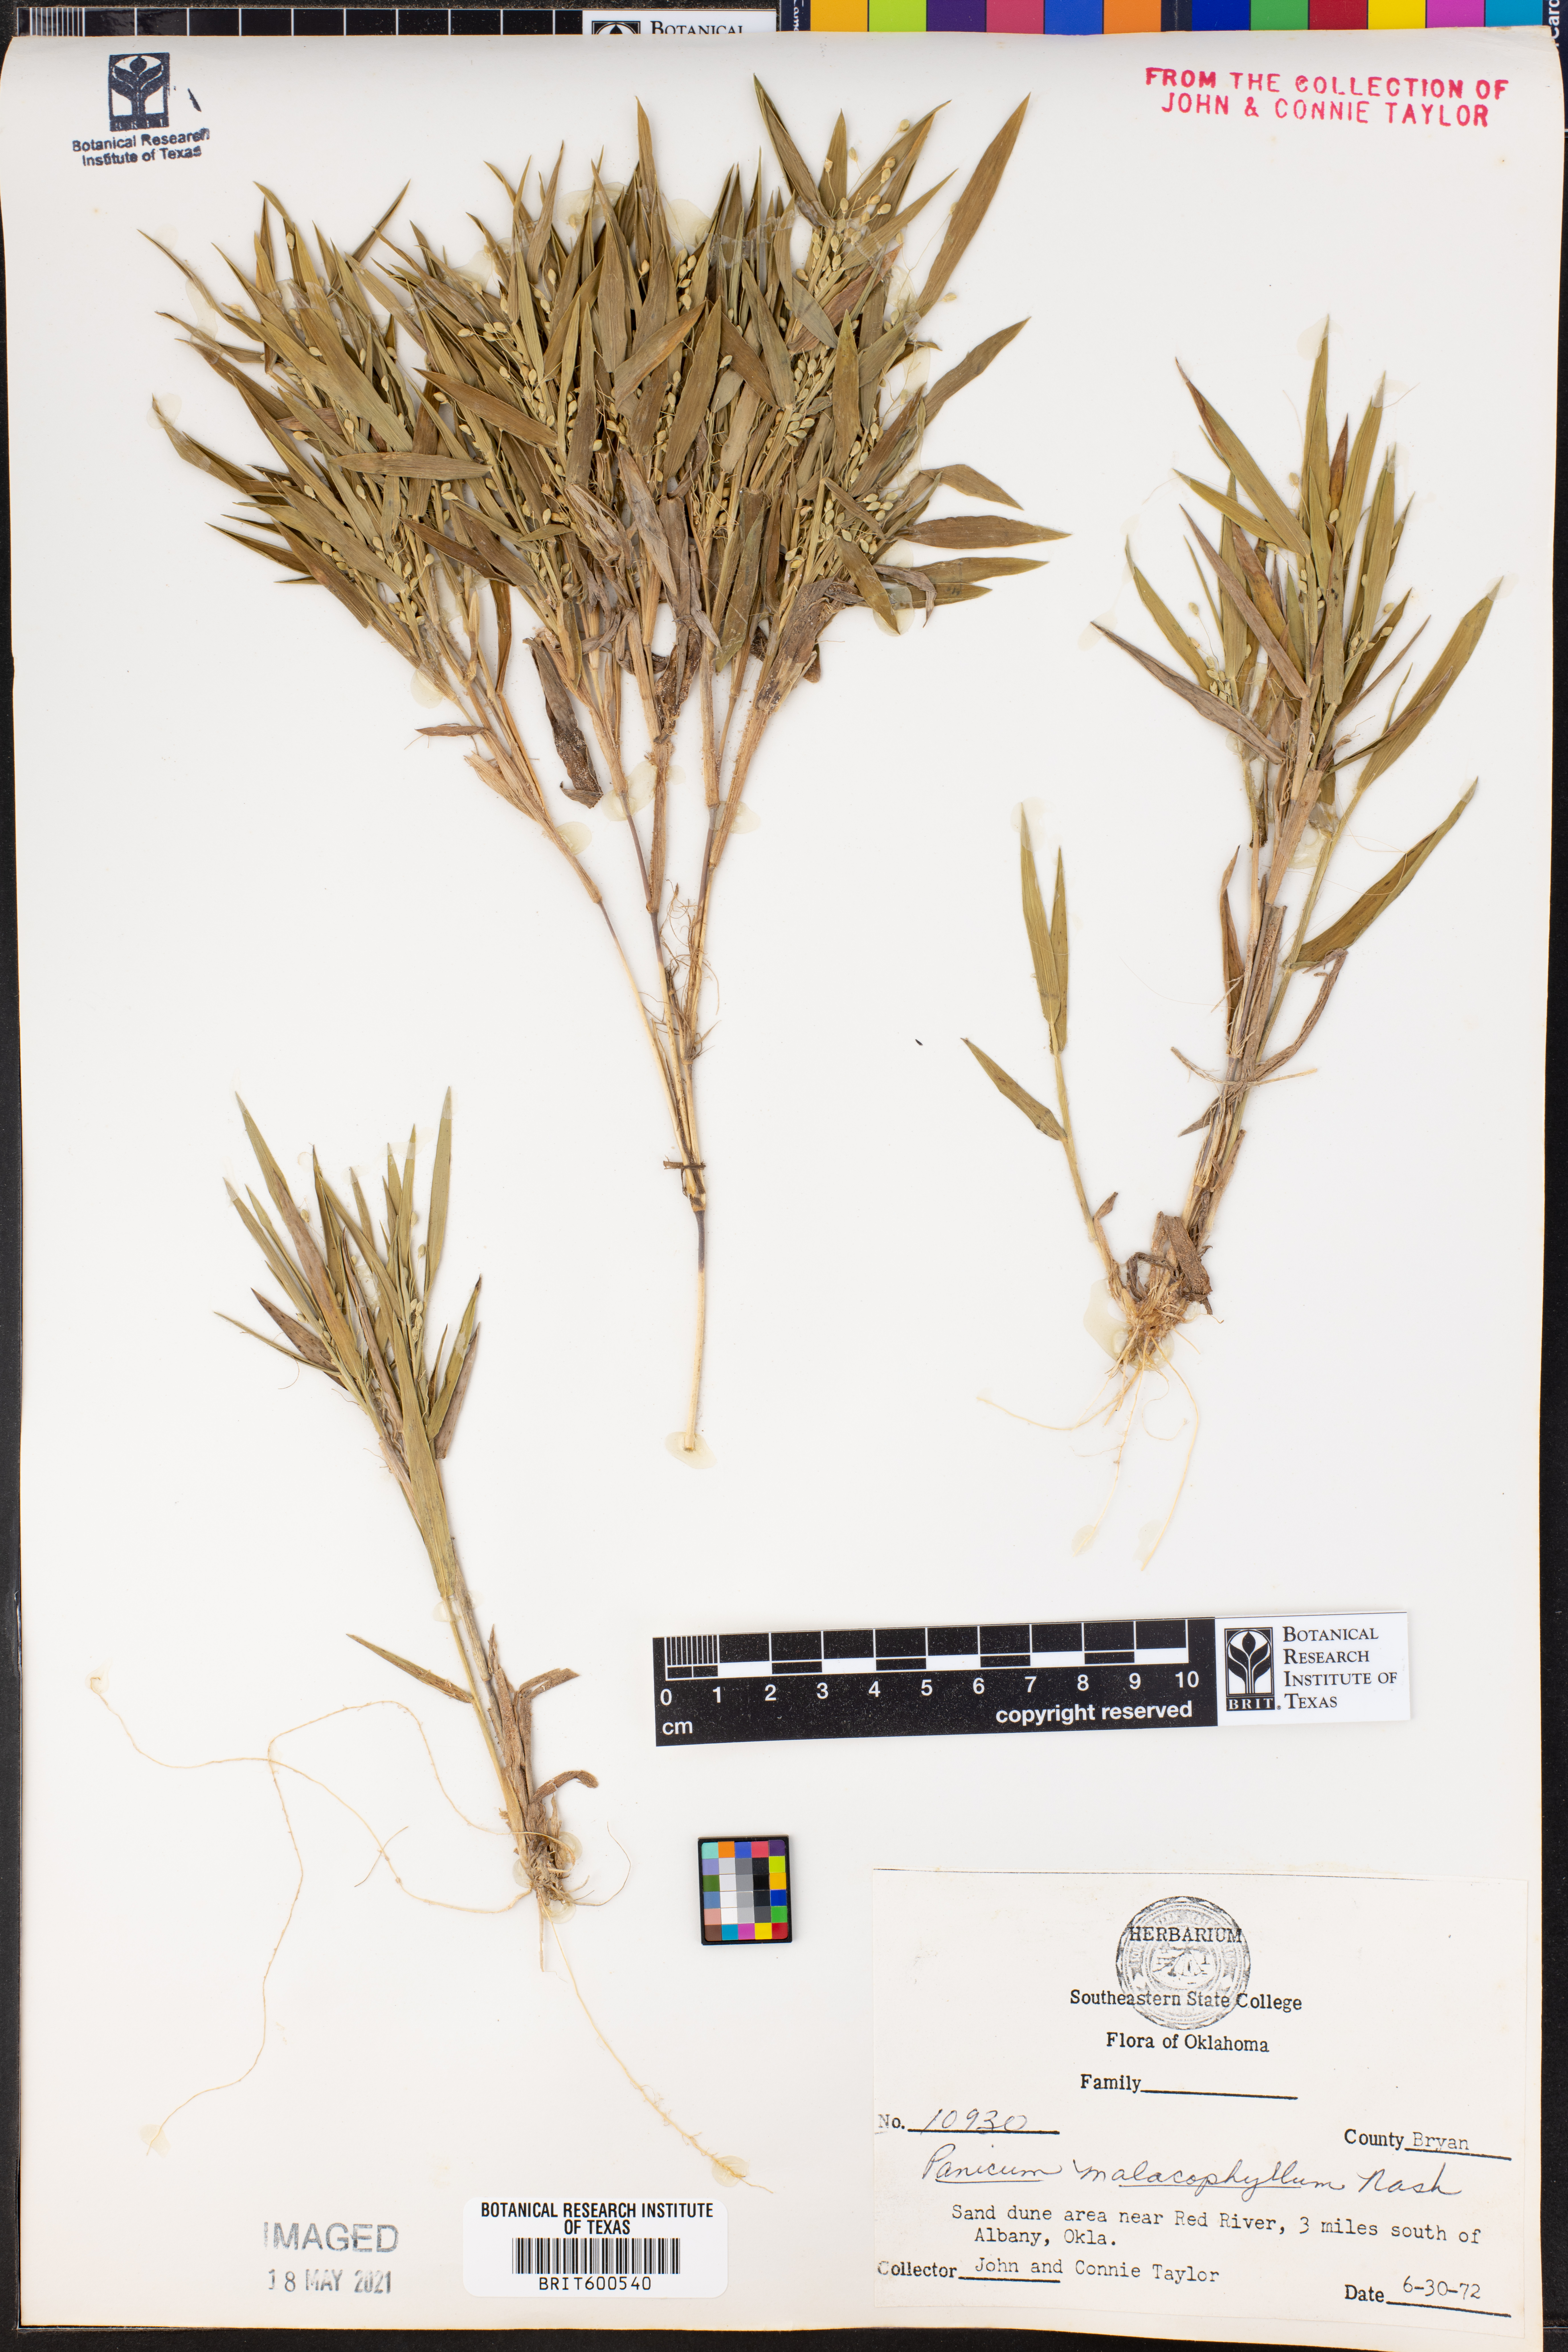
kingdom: Plantae
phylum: Tracheophyta
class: Liliopsida
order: Poales
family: Poaceae
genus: Dichanthelium
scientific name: Dichanthelium malacophyllum
